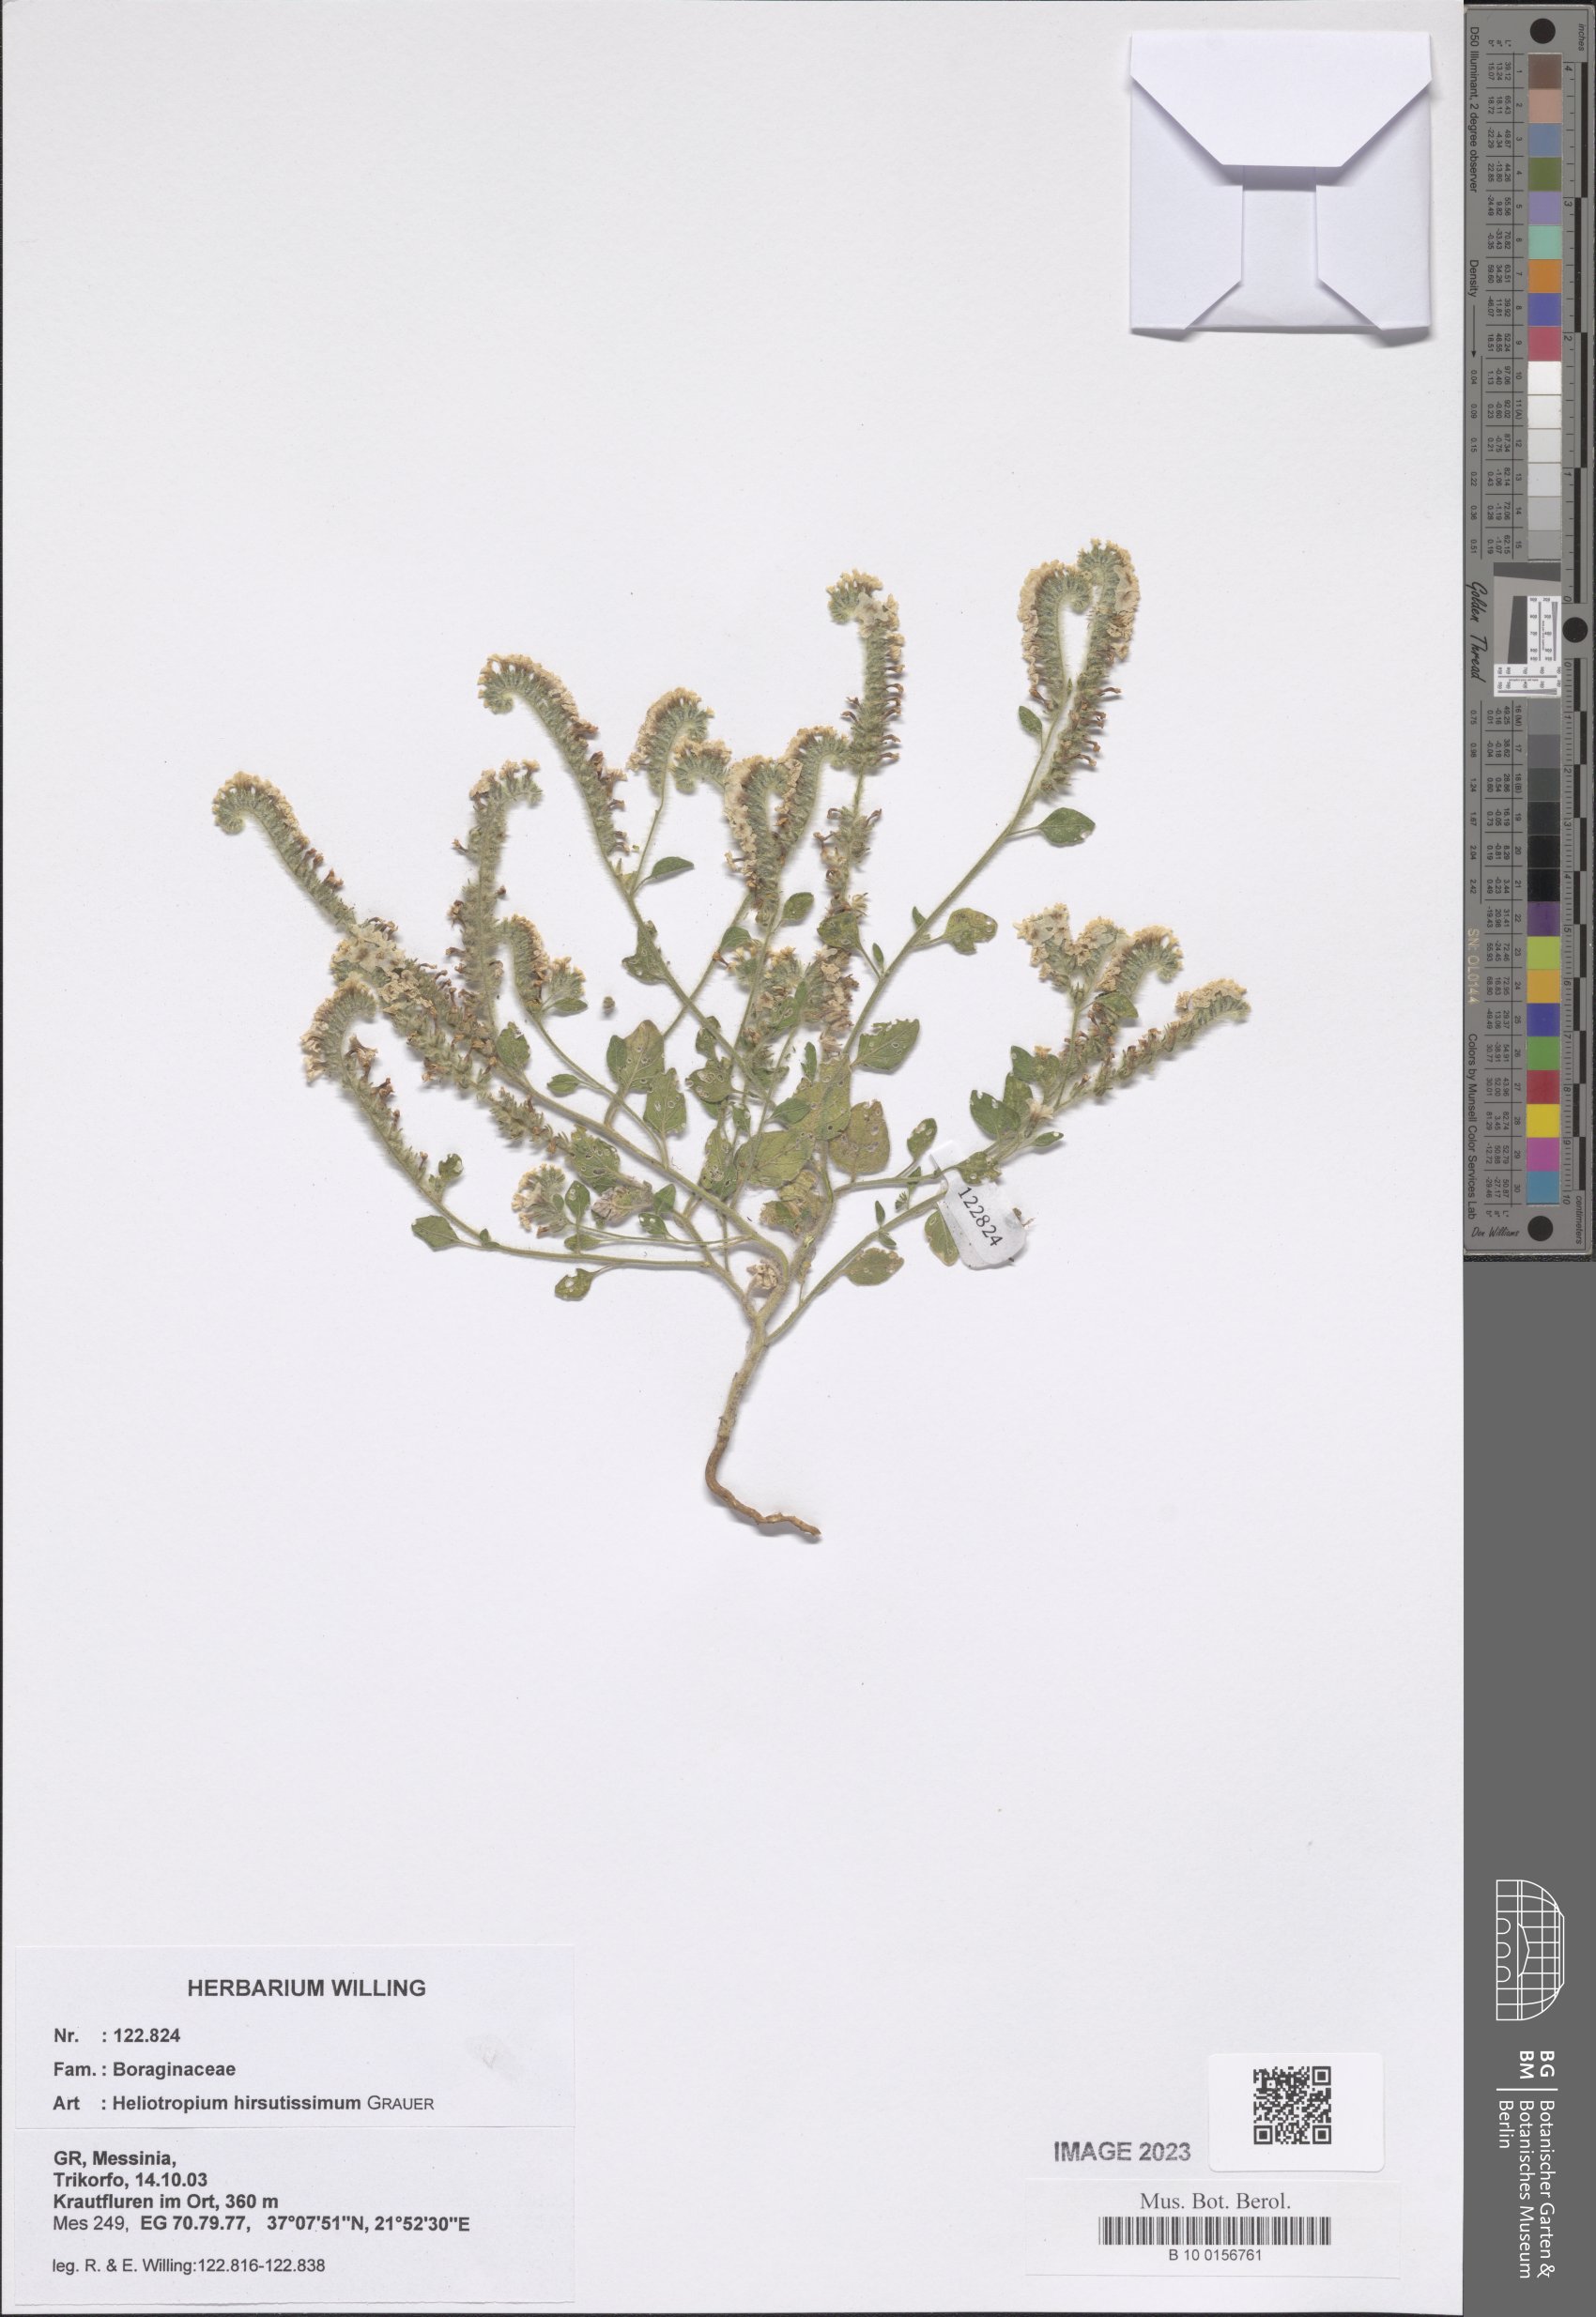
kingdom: Plantae
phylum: Tracheophyta
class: Magnoliopsida
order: Boraginales
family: Heliotropiaceae
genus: Heliotropium
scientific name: Heliotropium hirsutissimum
